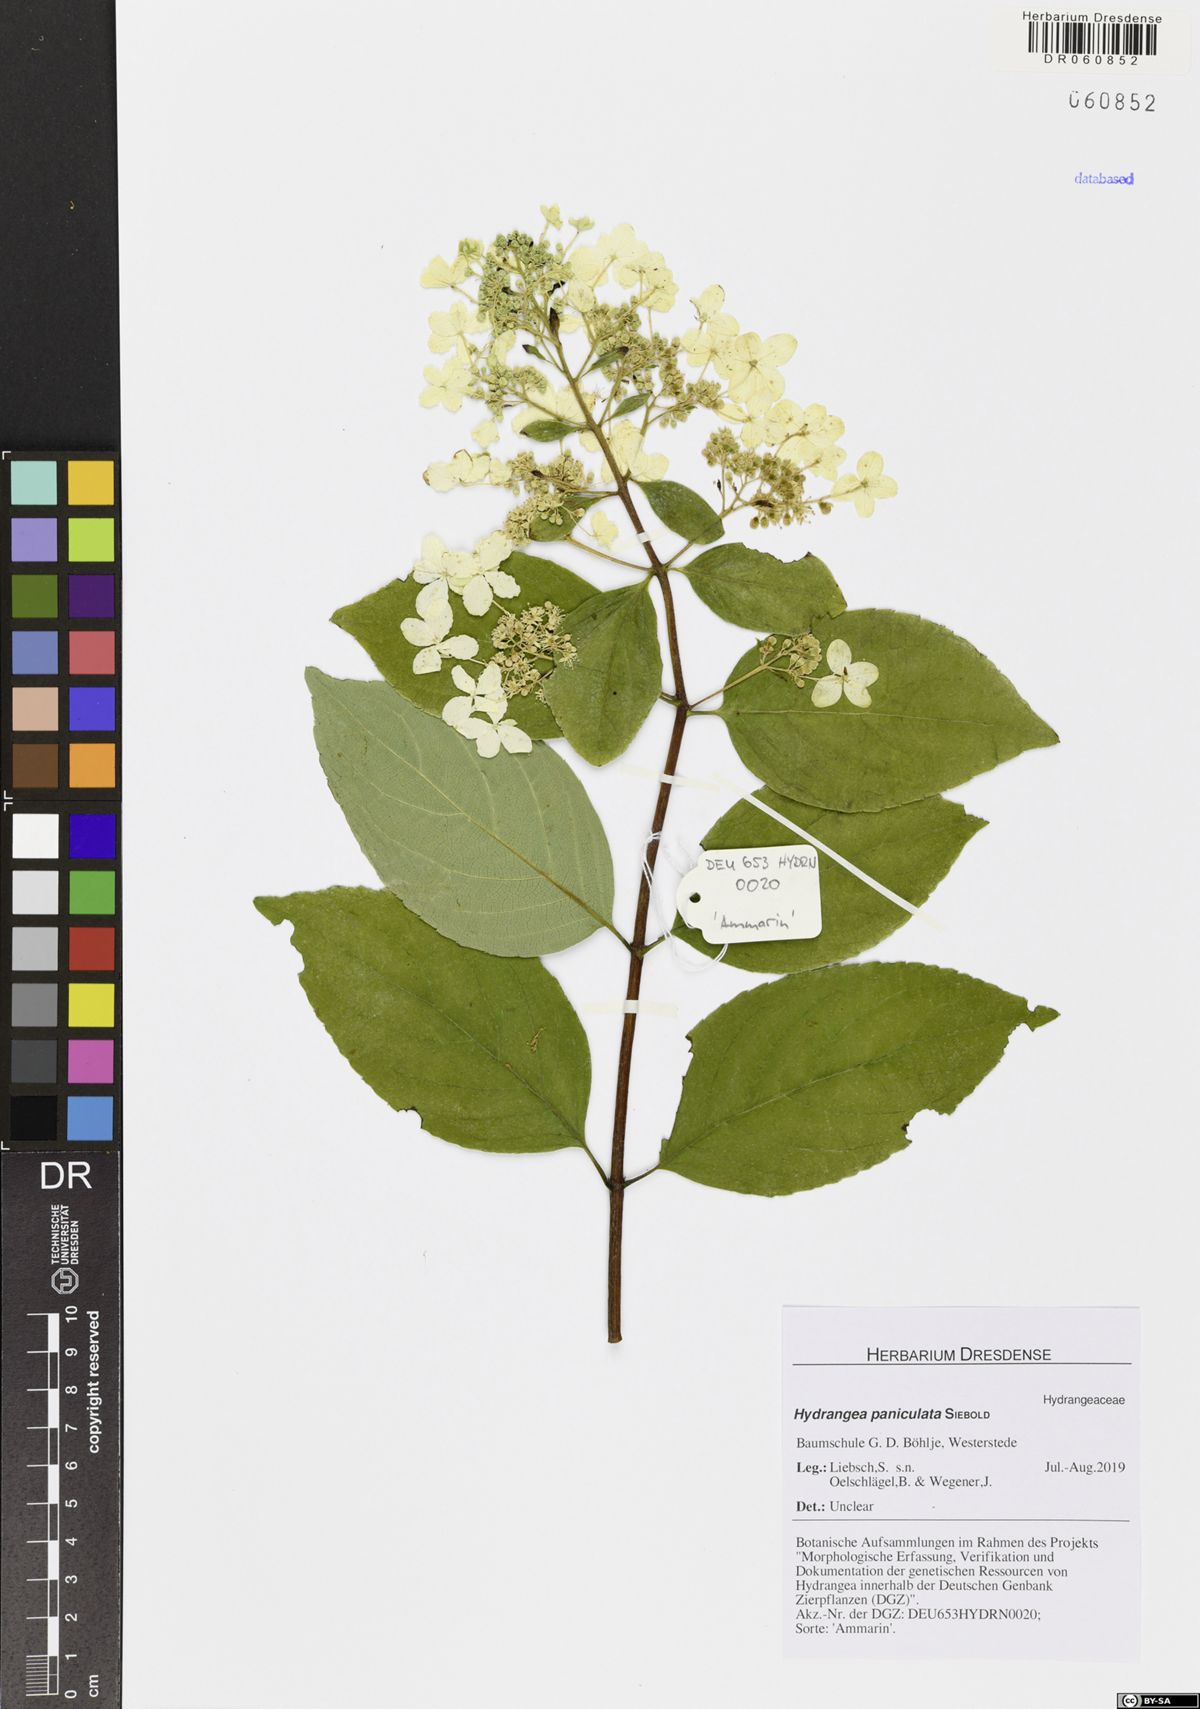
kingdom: Plantae
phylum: Tracheophyta
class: Magnoliopsida
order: Cornales
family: Hydrangeaceae
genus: Hydrangea
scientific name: Hydrangea paniculata
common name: Panicled hydrangea
